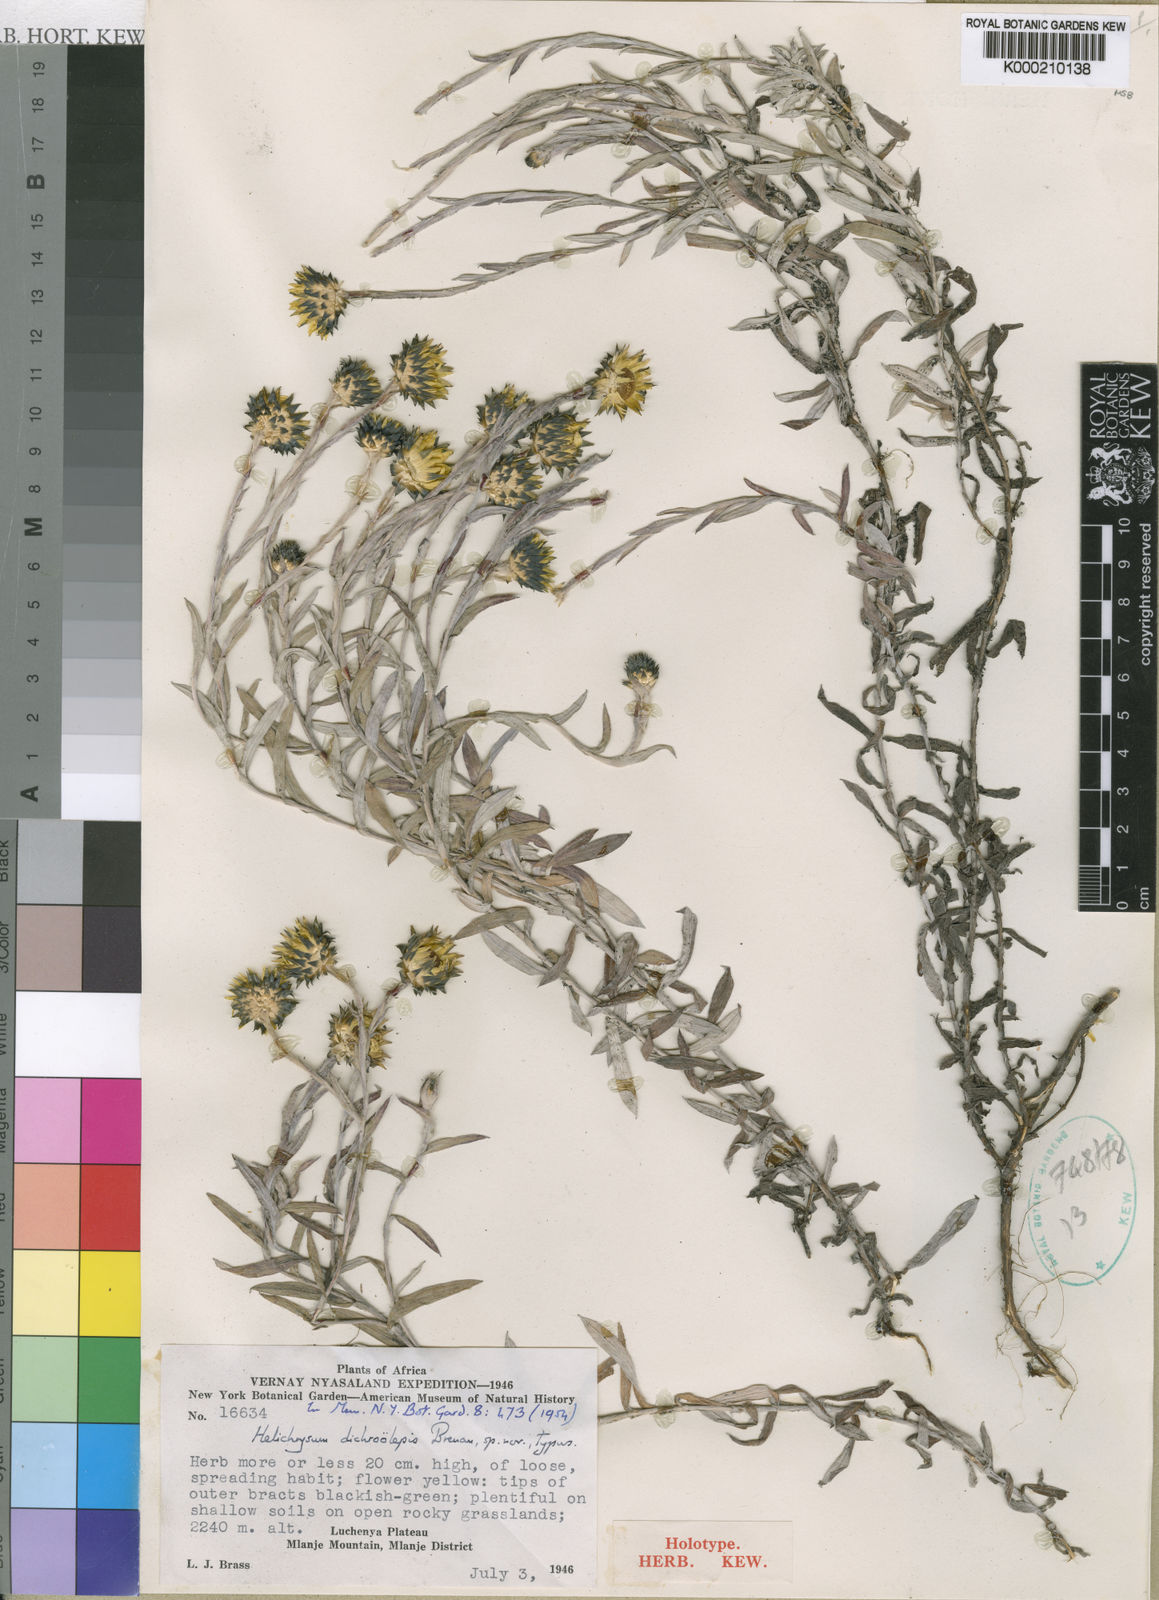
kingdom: Plantae
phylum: Tracheophyta
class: Magnoliopsida
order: Asterales
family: Asteraceae
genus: Helichrysum
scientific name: Helichrysum
